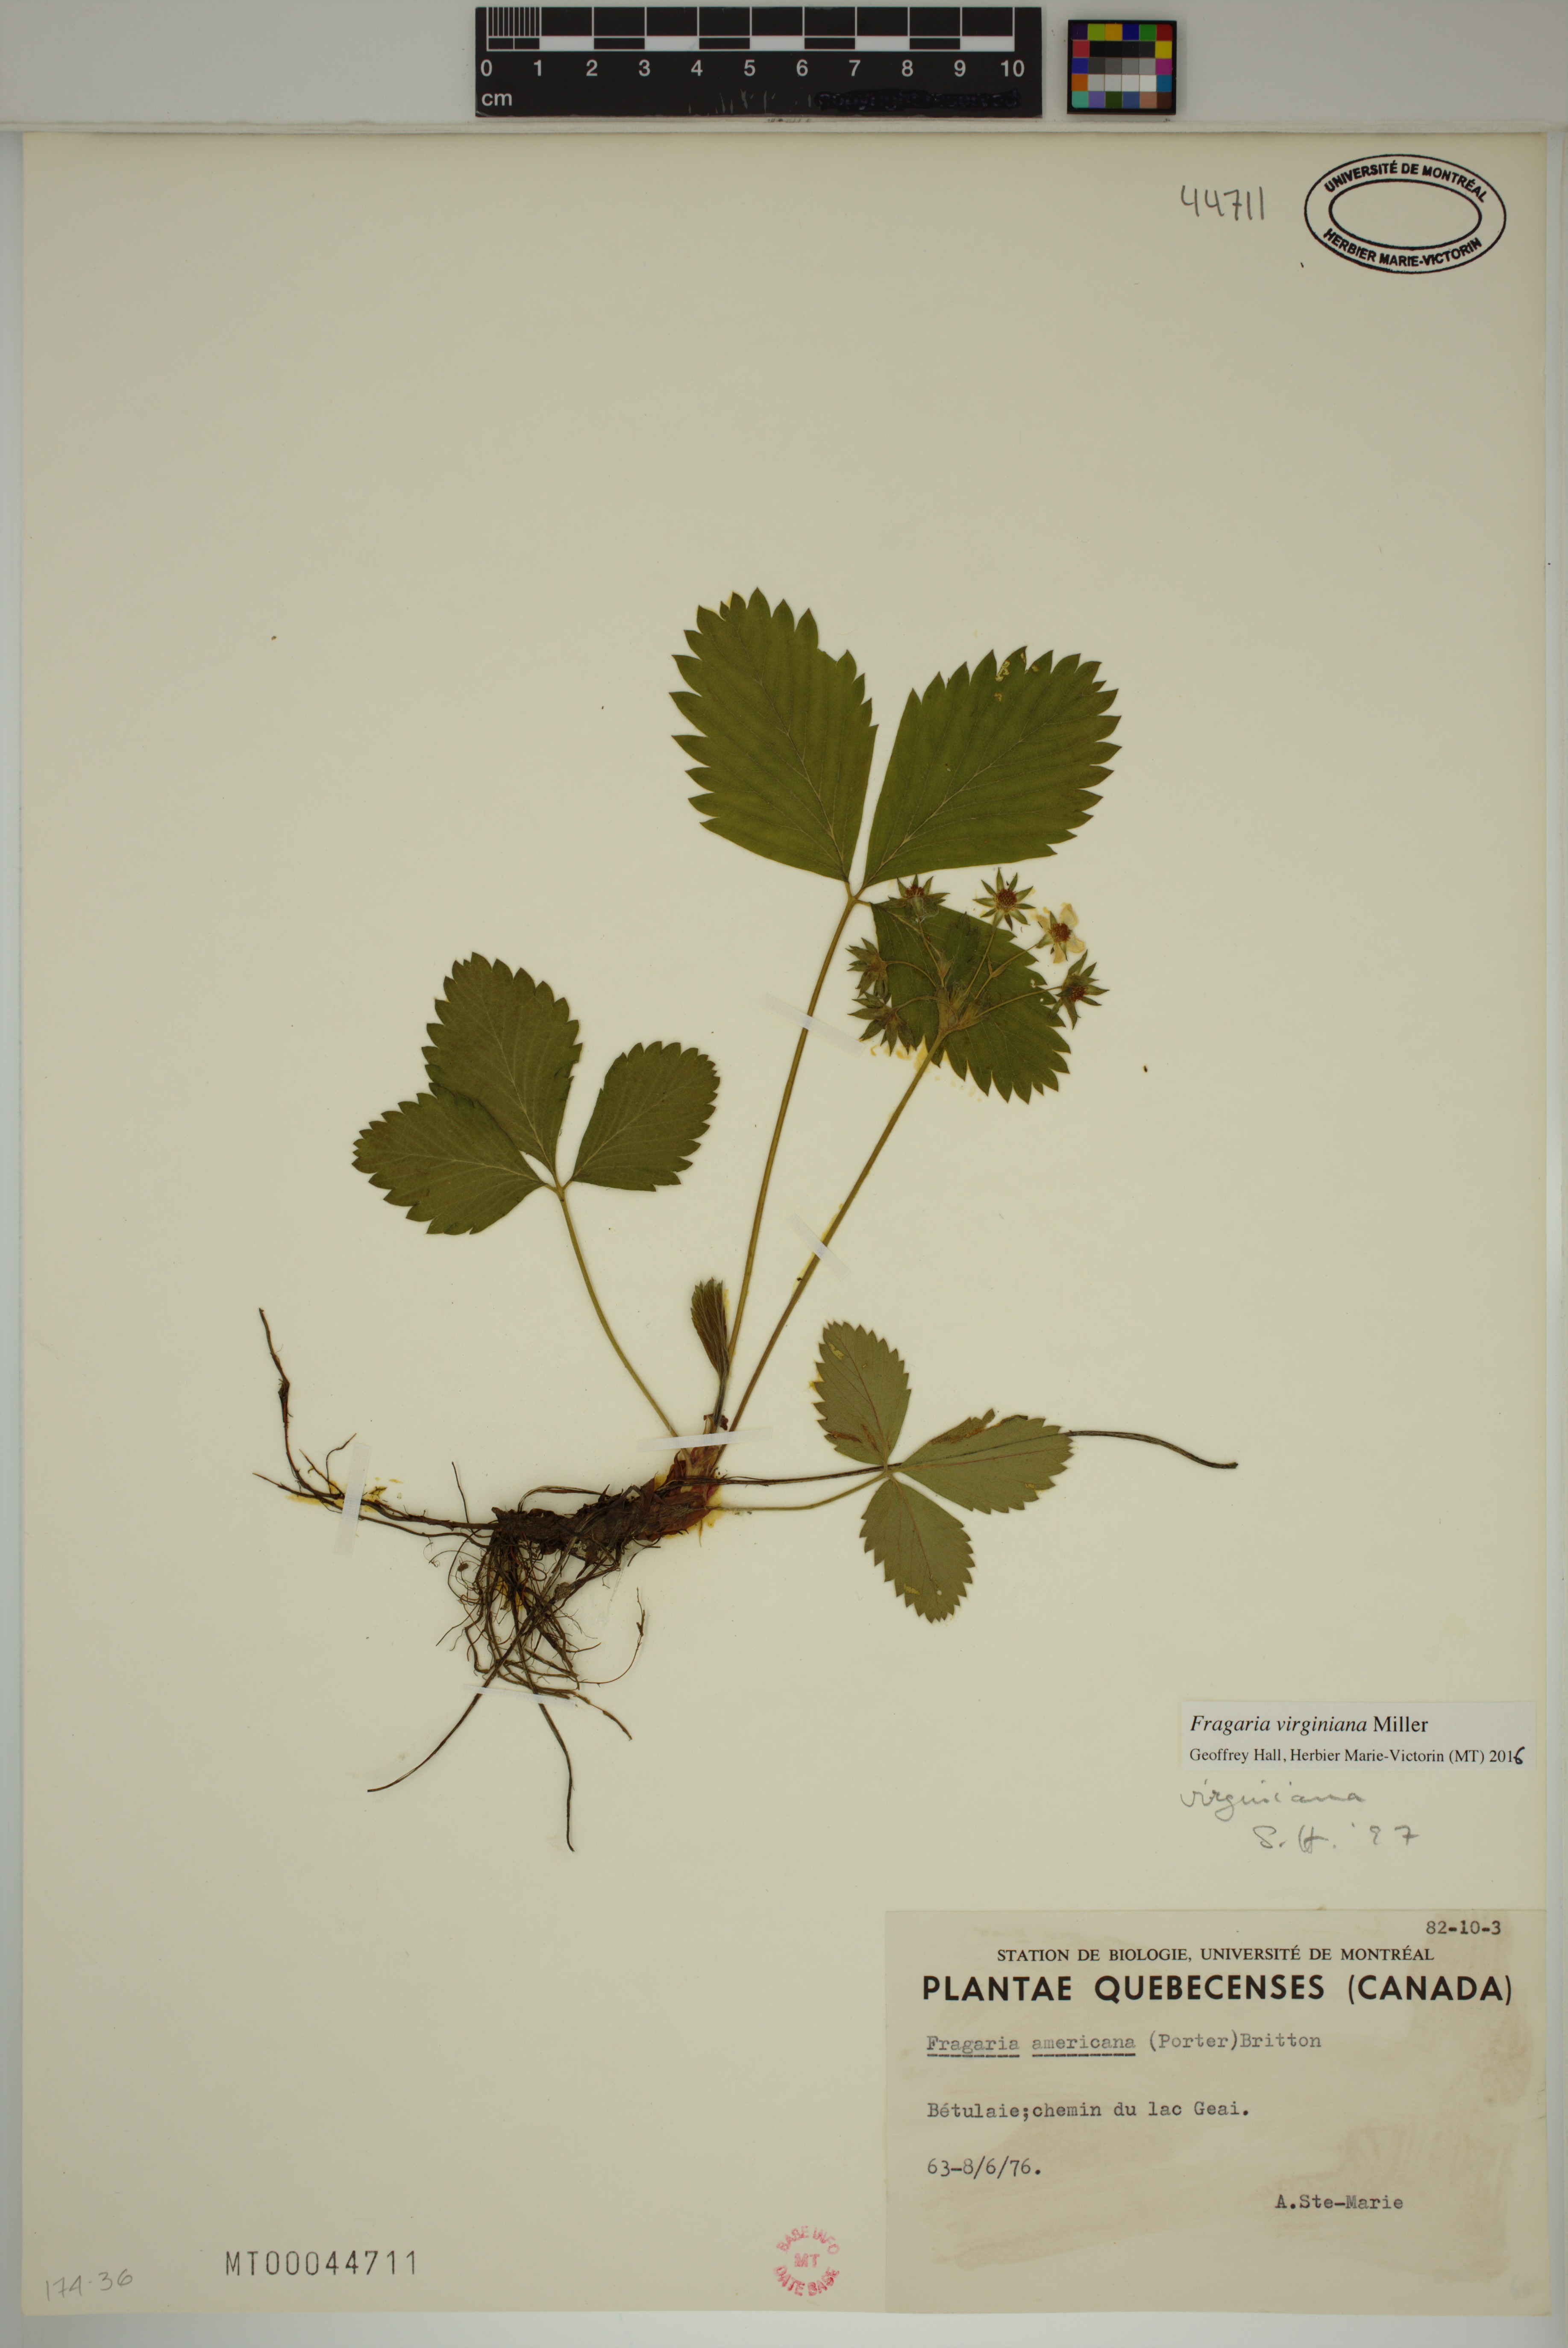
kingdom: Plantae
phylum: Tracheophyta
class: Magnoliopsida
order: Rosales
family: Rosaceae
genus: Fragaria
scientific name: Fragaria virginiana
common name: Thickleaved wild strawberry
